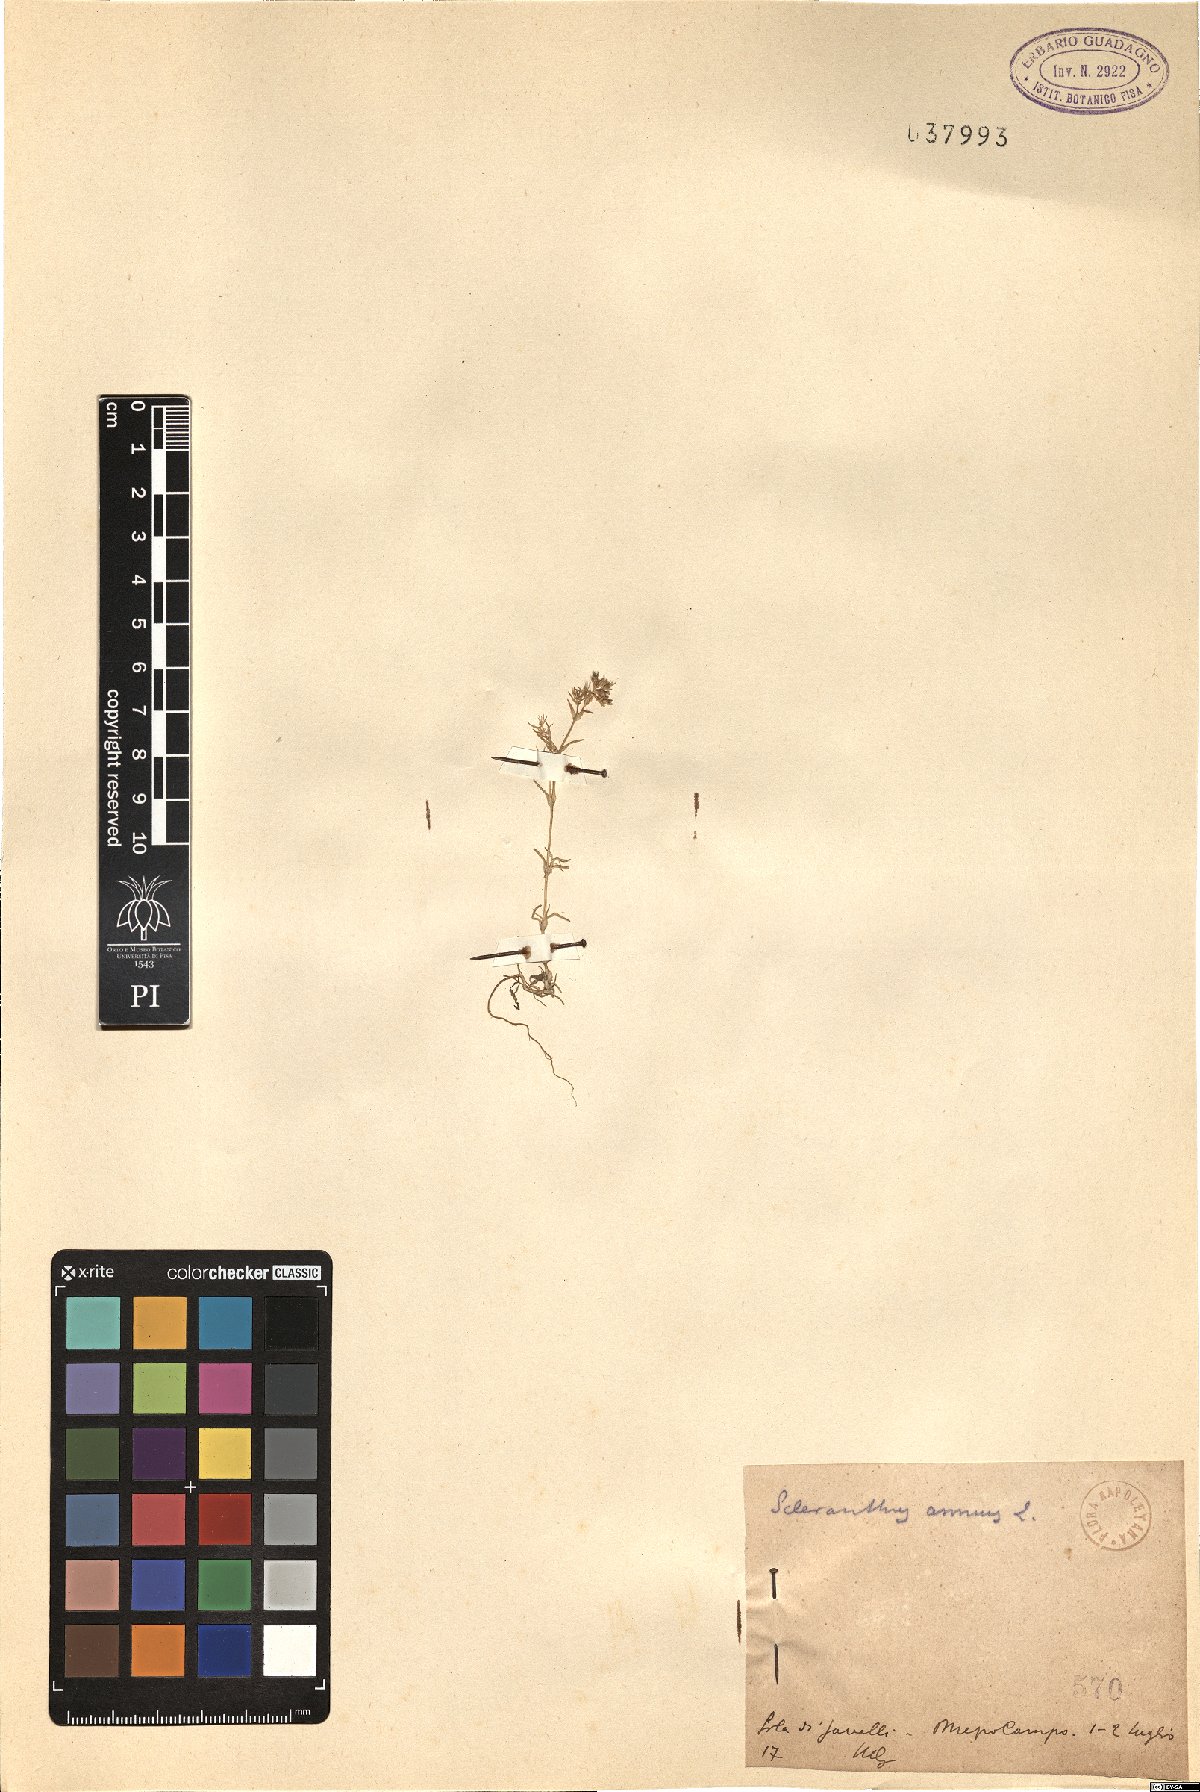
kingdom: Plantae
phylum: Tracheophyta
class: Magnoliopsida
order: Caryophyllales
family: Caryophyllaceae
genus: Scleranthus
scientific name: Scleranthus annuus
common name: Annual knawel
